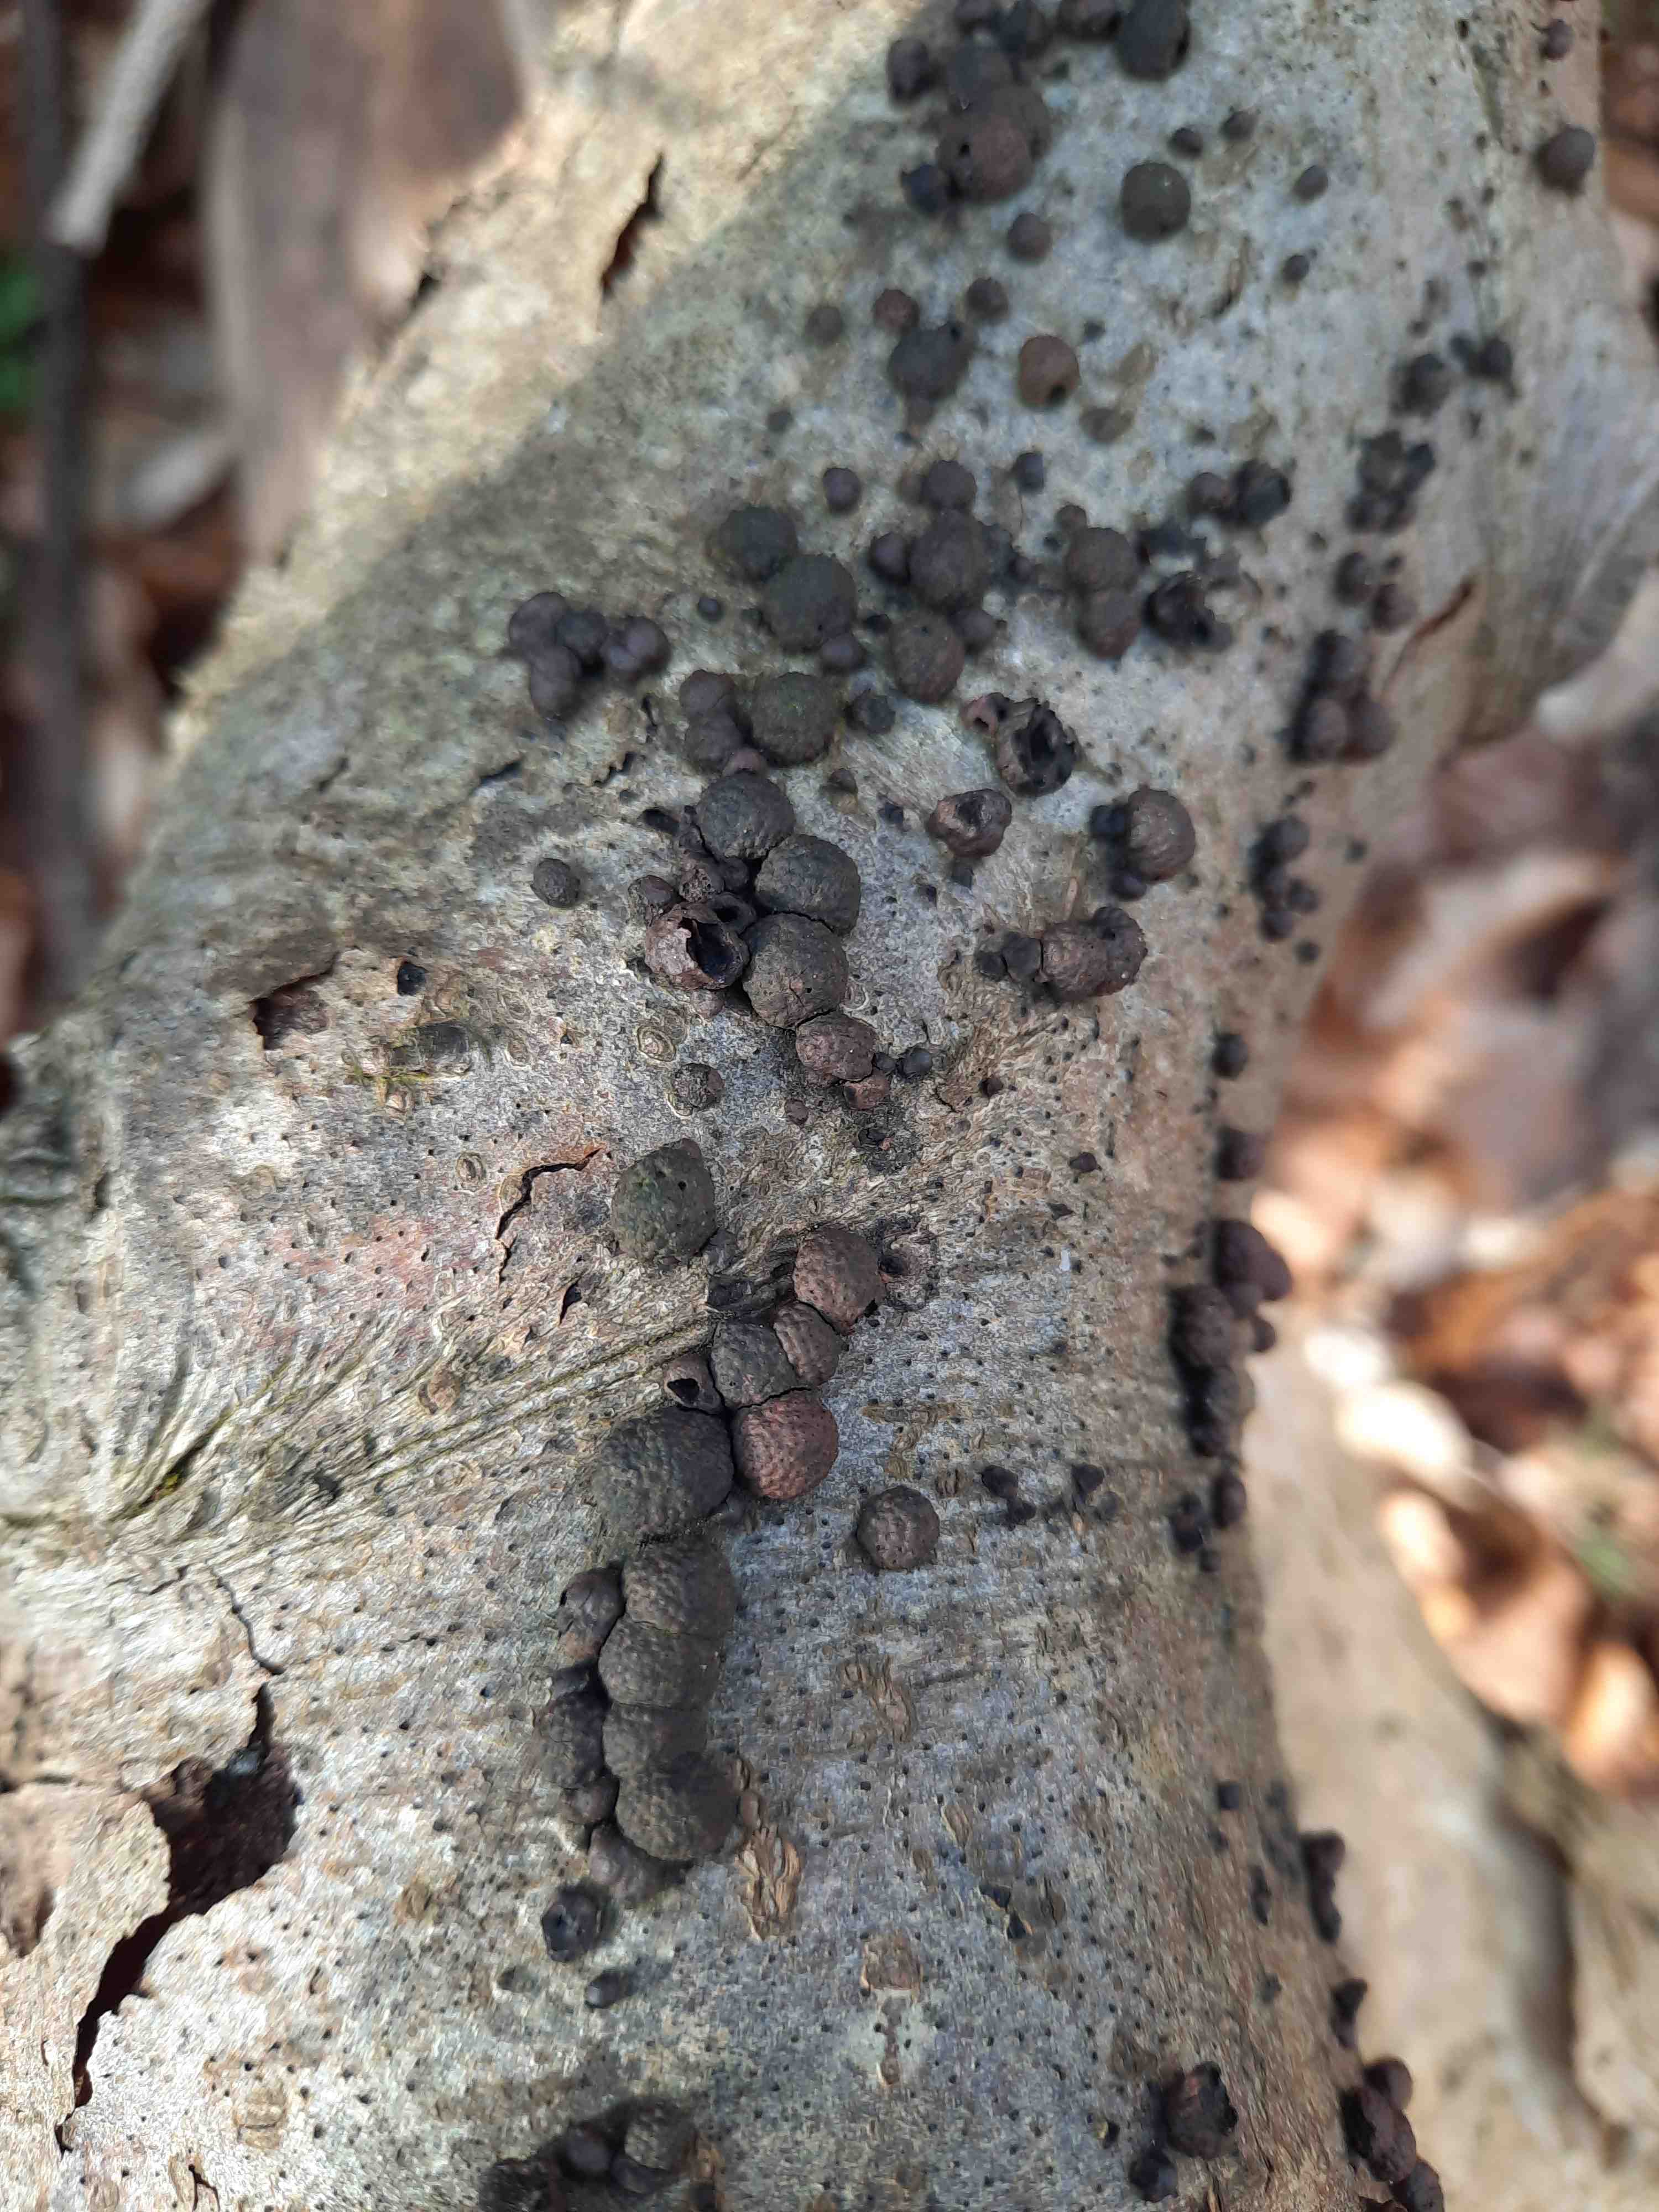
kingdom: Fungi
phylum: Ascomycota
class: Sordariomycetes
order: Xylariales
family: Hypoxylaceae
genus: Hypoxylon
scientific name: Hypoxylon fragiforme
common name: kuljordbær
